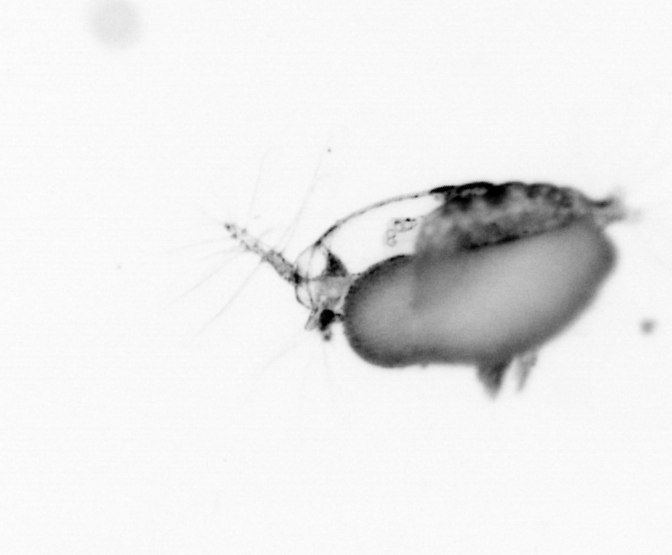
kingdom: Animalia
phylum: Arthropoda
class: Copepoda
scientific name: Copepoda
